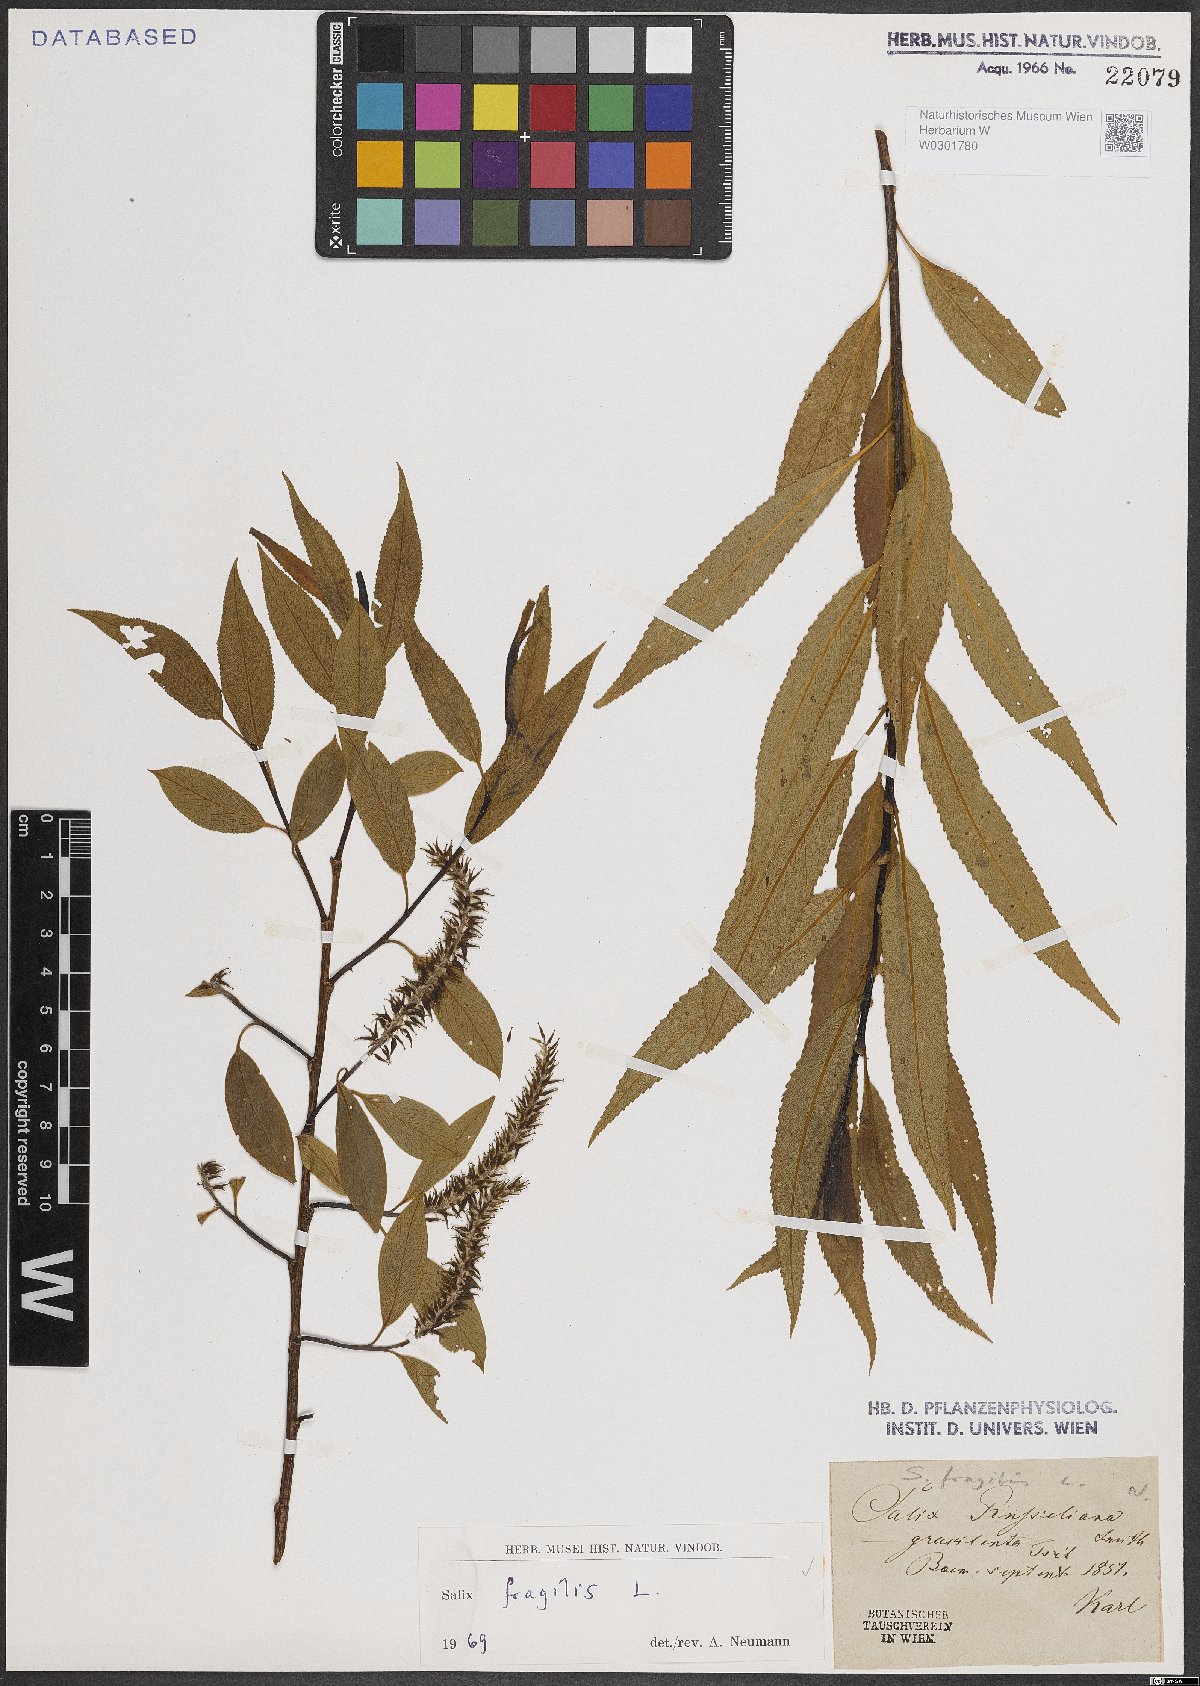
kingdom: Plantae
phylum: Tracheophyta
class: Magnoliopsida
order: Malpighiales
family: Salicaceae
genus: Salix
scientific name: Salix fragilis
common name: Crack willow
